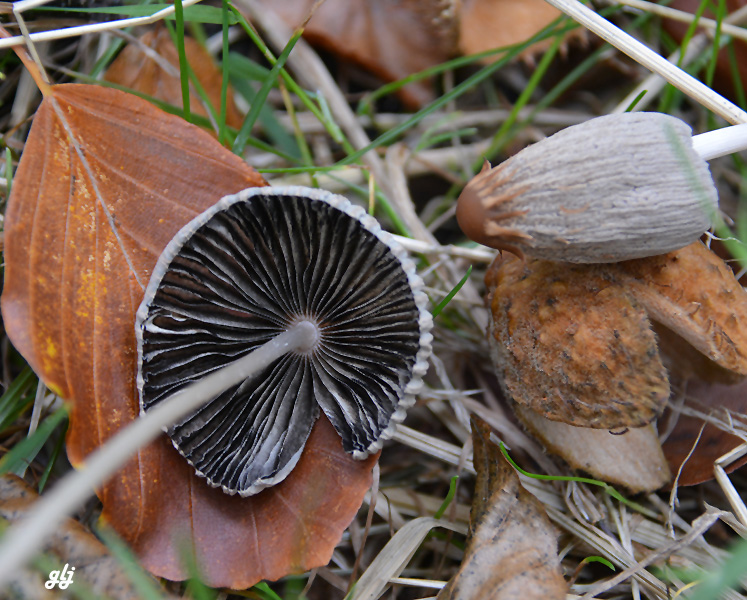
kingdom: Fungi
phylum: Basidiomycota
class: Agaricomycetes
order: Agaricales
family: Psathyrellaceae
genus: Parasola
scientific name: Parasola
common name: hjulhat
